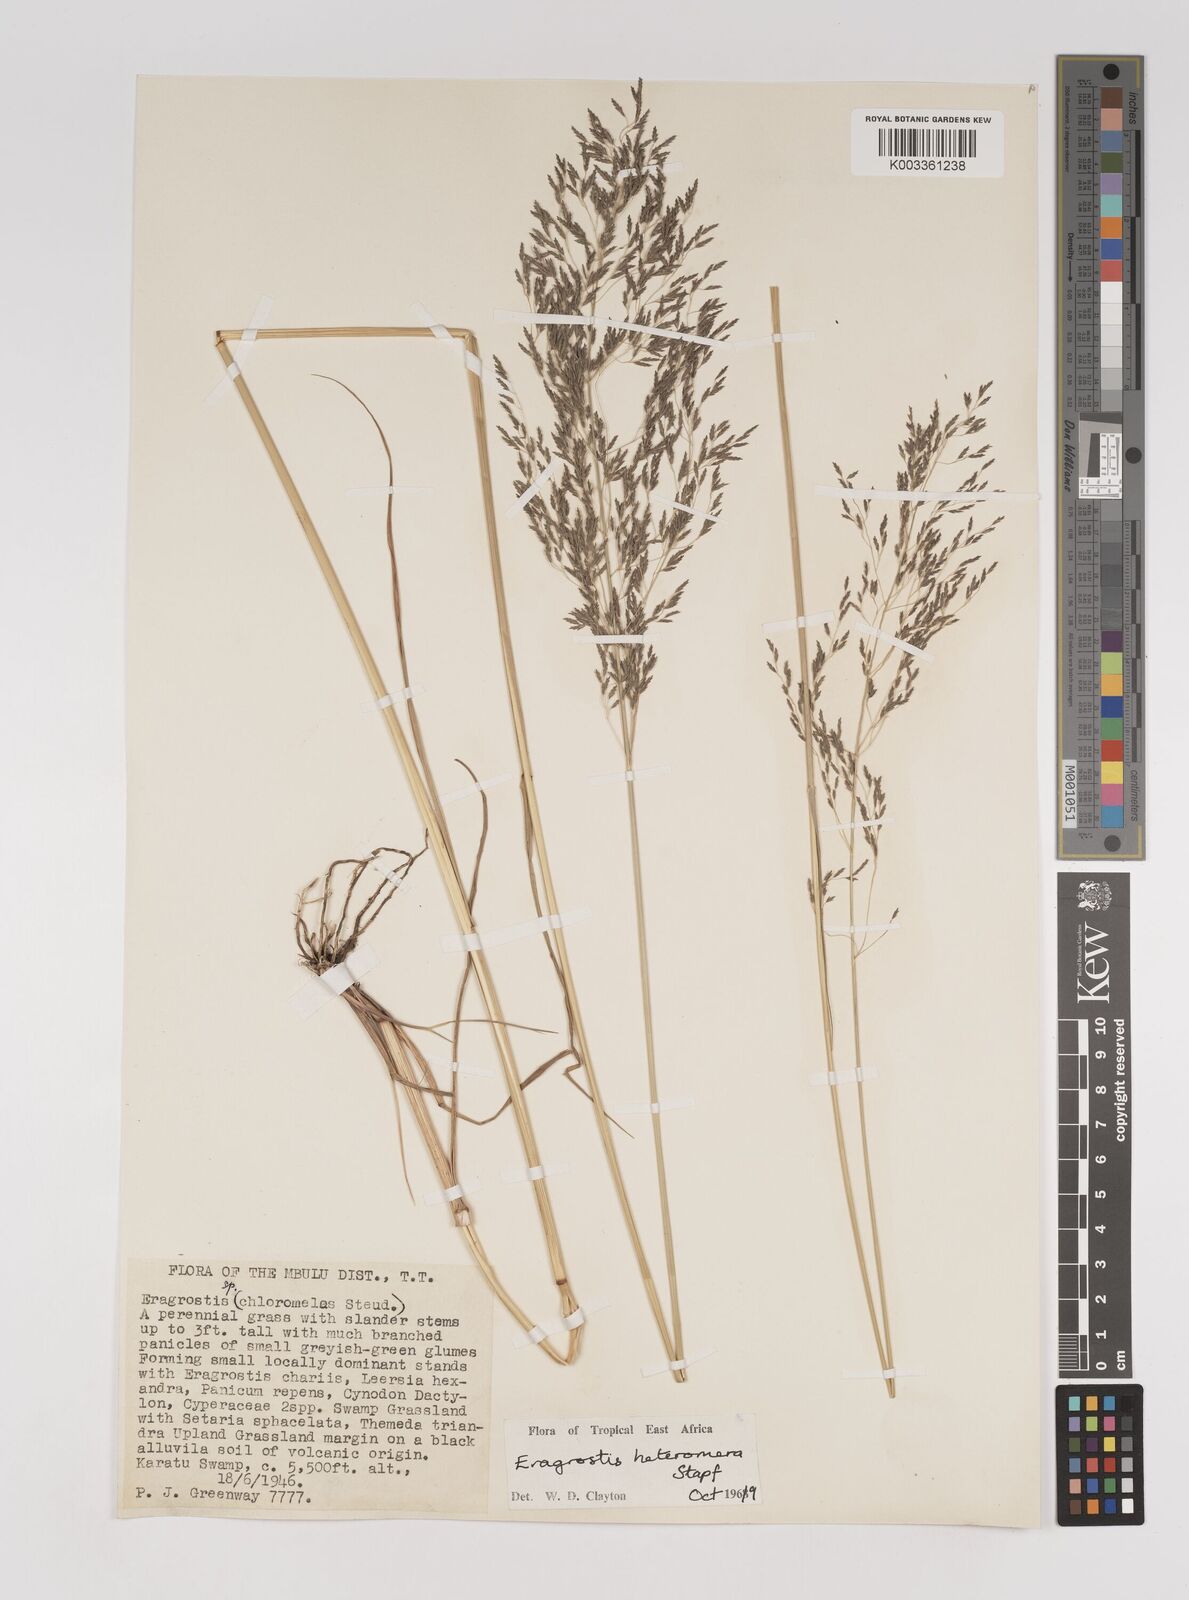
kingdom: Plantae
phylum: Tracheophyta
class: Liliopsida
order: Poales
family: Poaceae
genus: Eragrostis
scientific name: Eragrostis heteromera
